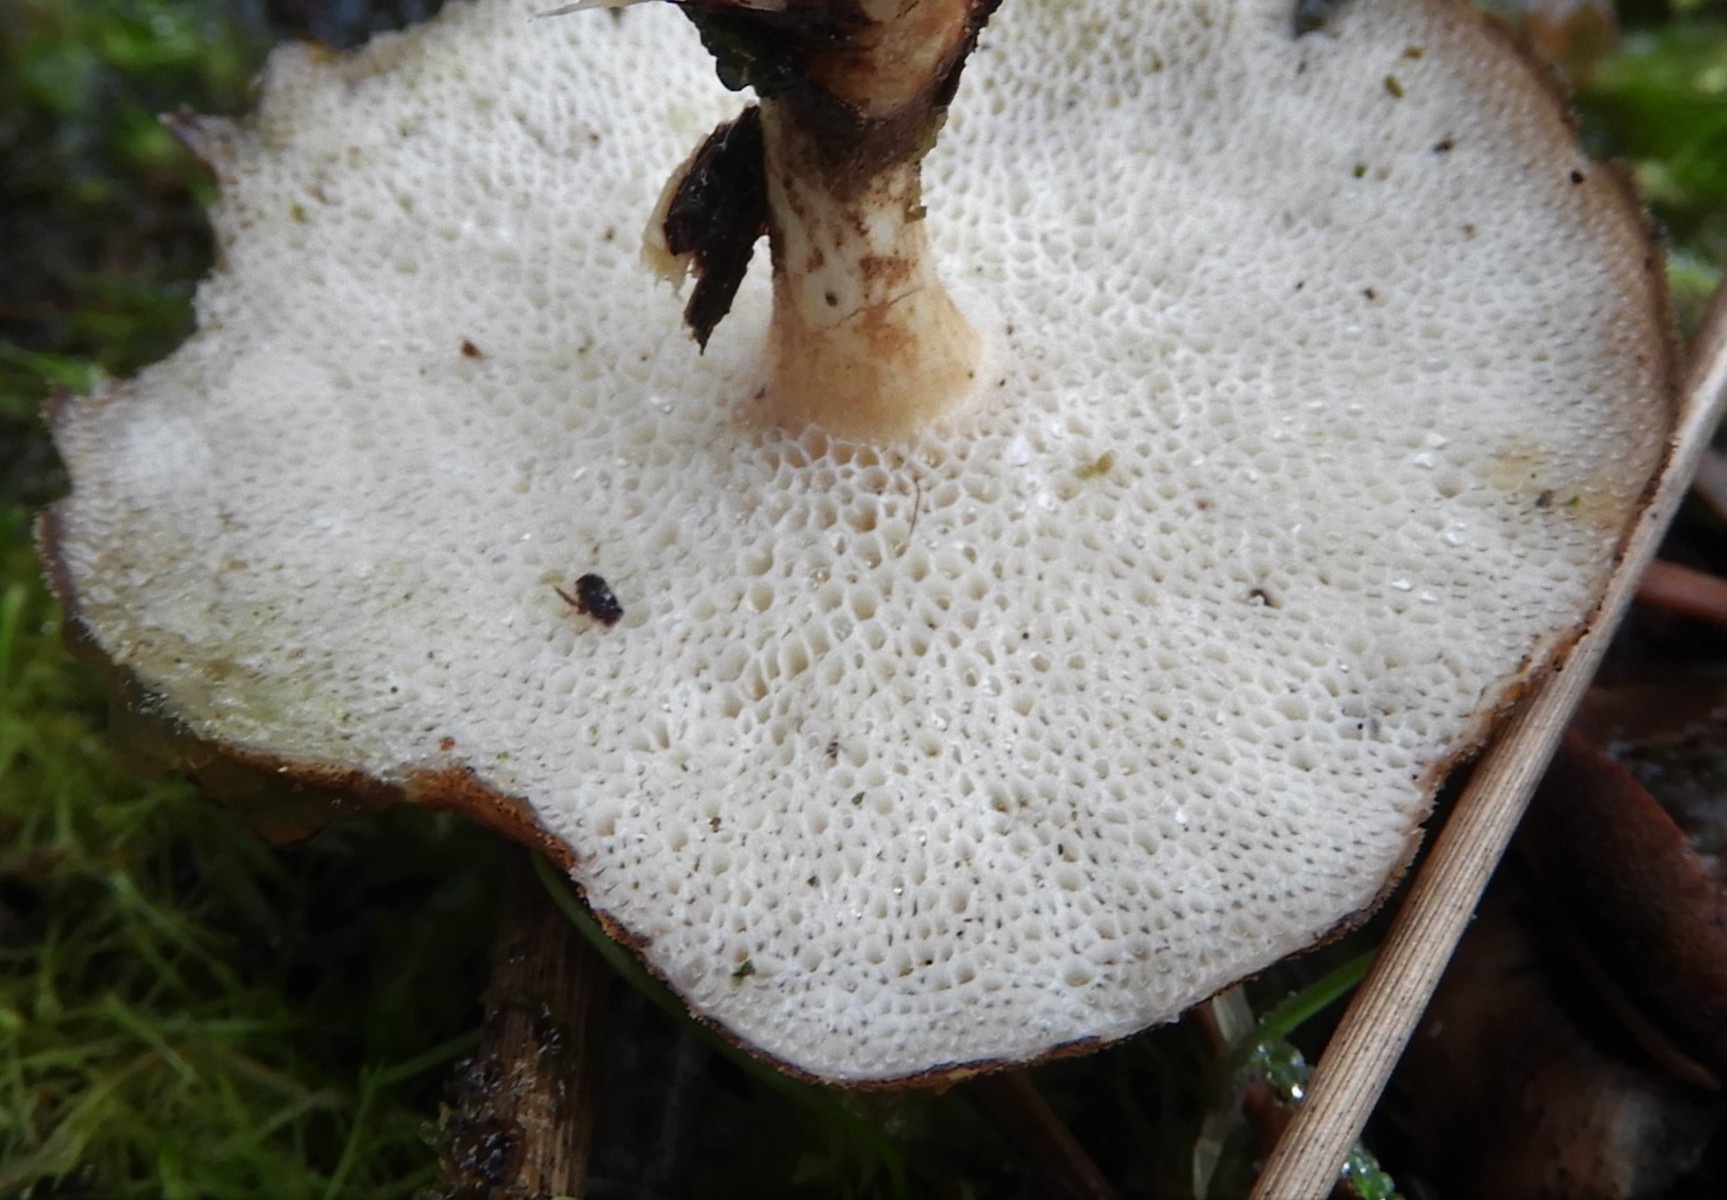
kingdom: Fungi
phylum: Basidiomycota
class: Agaricomycetes
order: Polyporales
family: Polyporaceae
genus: Lentinus
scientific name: Lentinus brumalis
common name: vinter-stilkporesvamp
